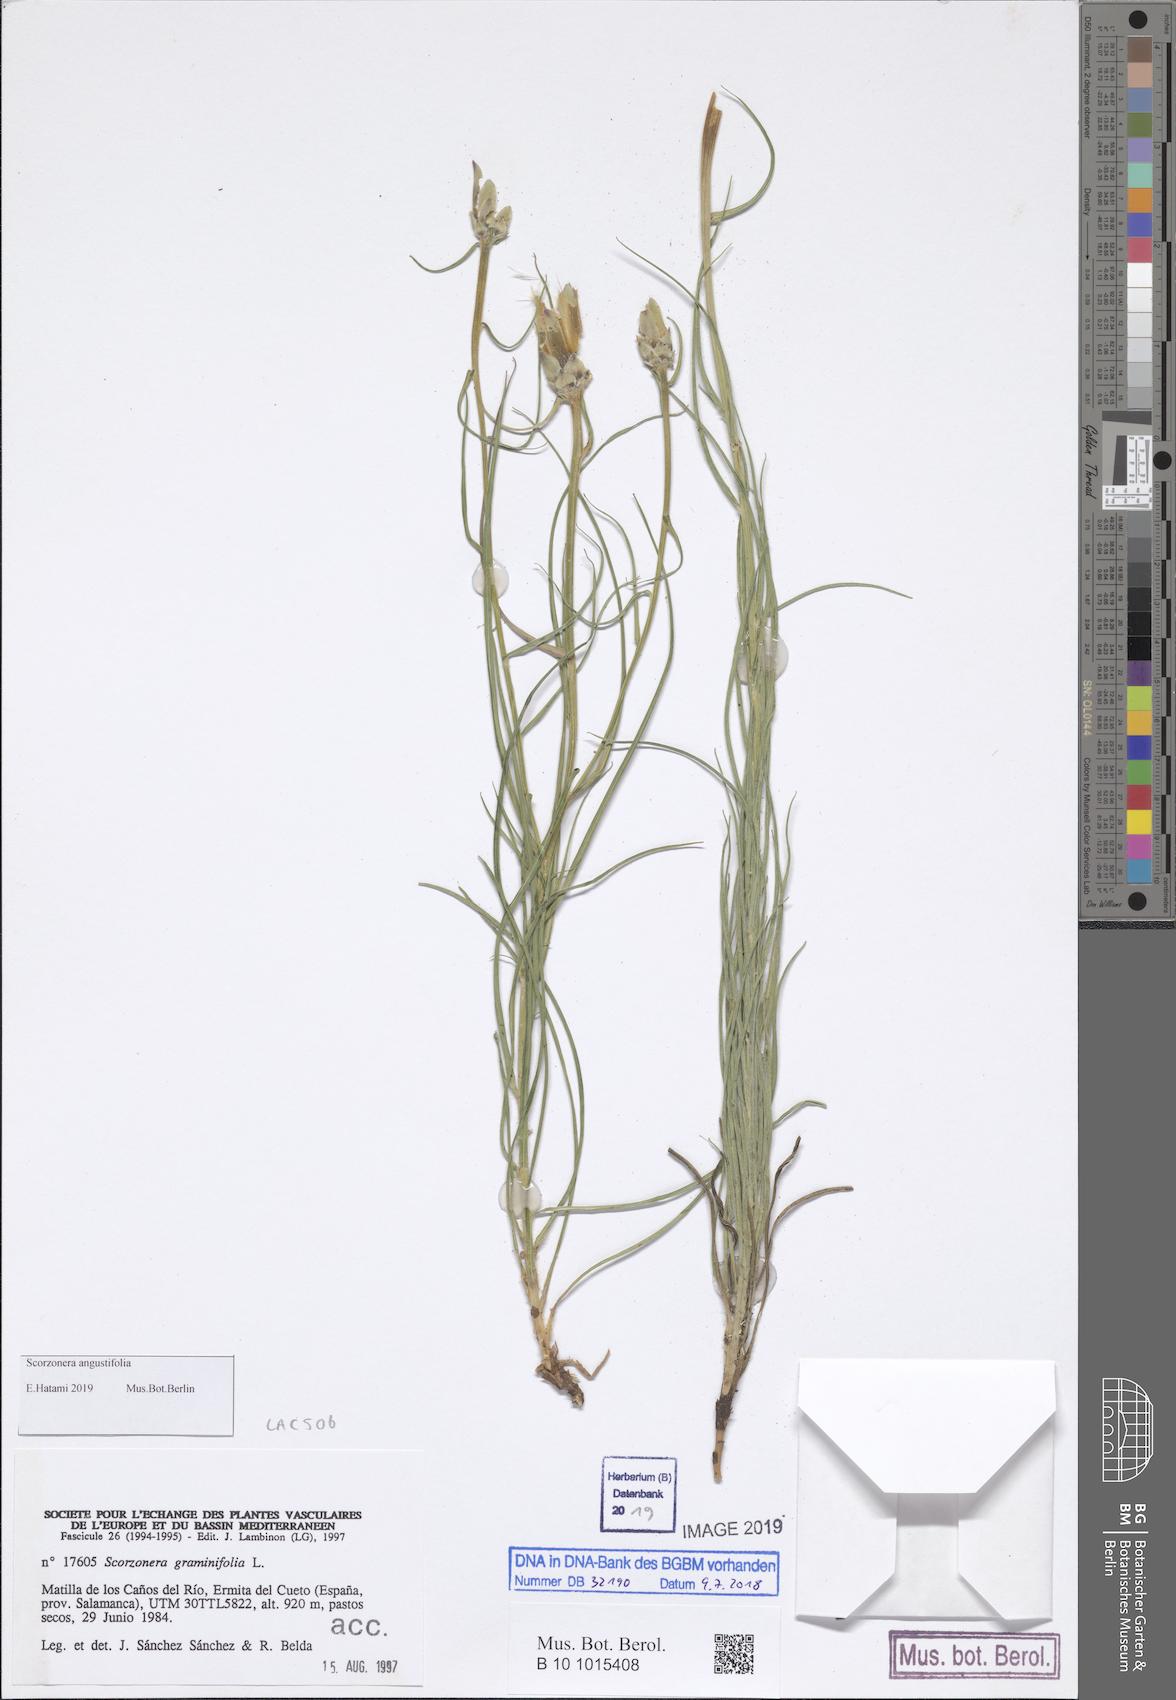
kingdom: Plantae
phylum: Tracheophyta
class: Magnoliopsida
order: Asterales
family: Asteraceae
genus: Scorzonera
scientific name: Scorzonera graminifolia
